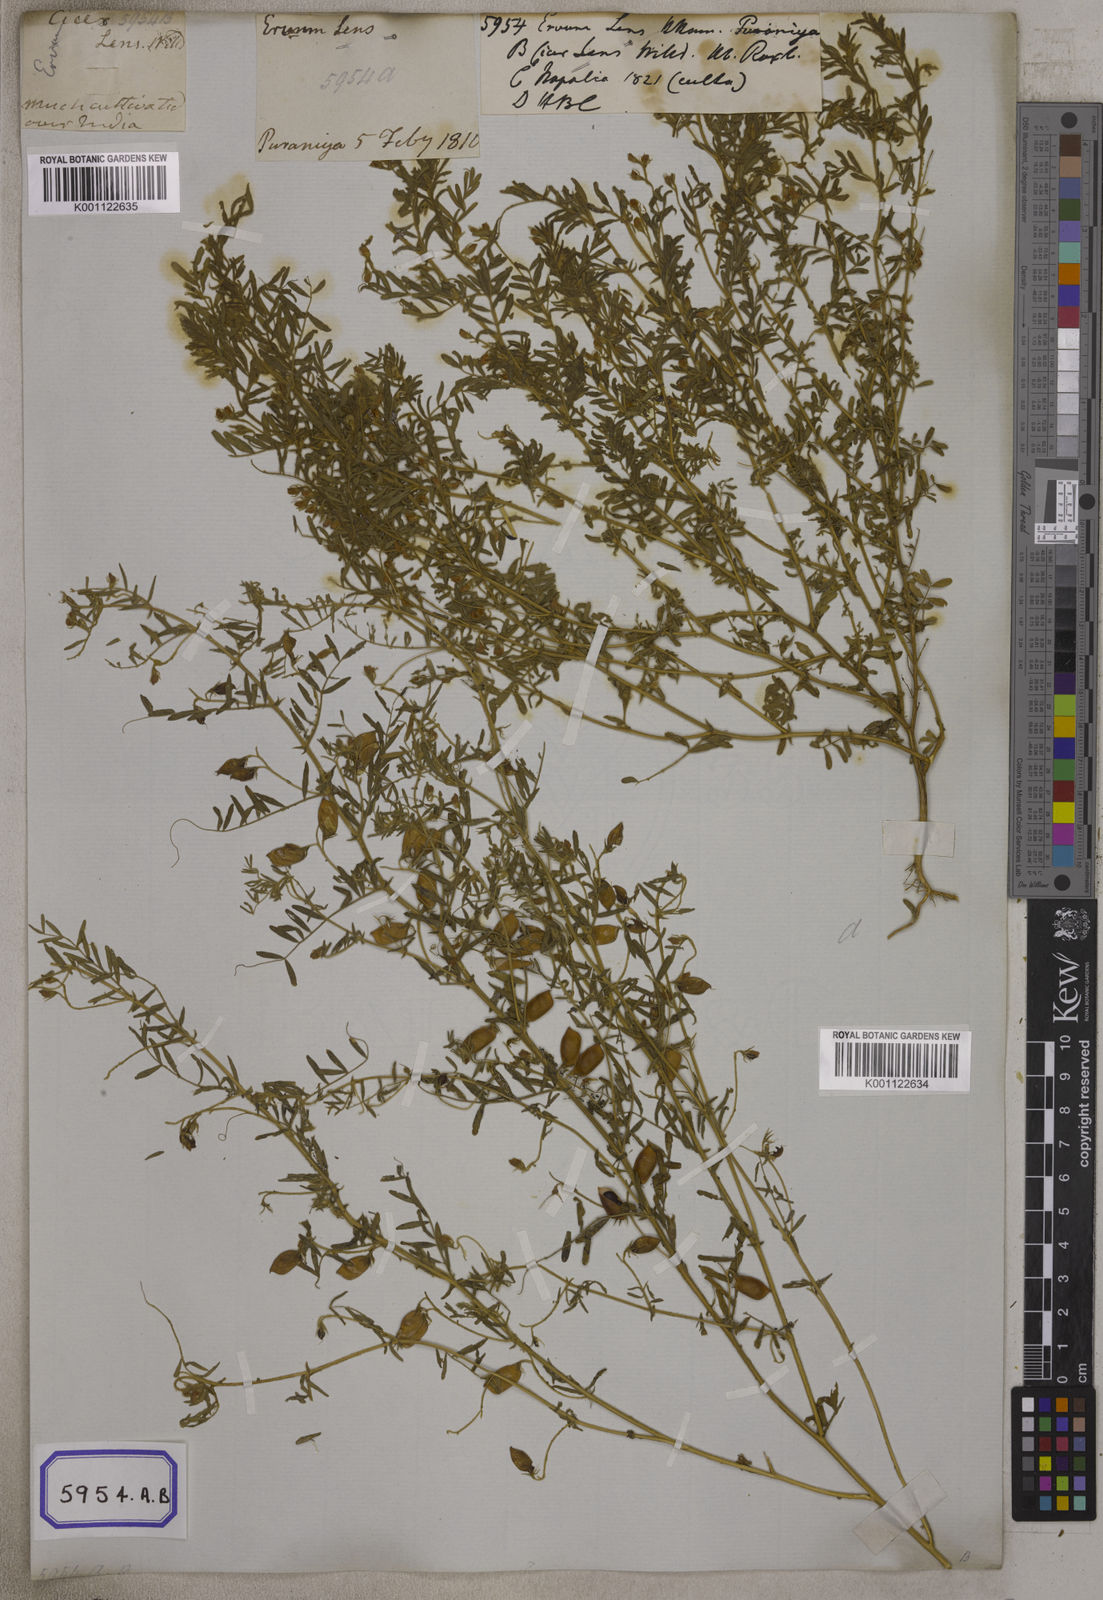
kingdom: Plantae
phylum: Tracheophyta
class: Magnoliopsida
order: Fabales
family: Fabaceae
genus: Vicia
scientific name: Vicia
